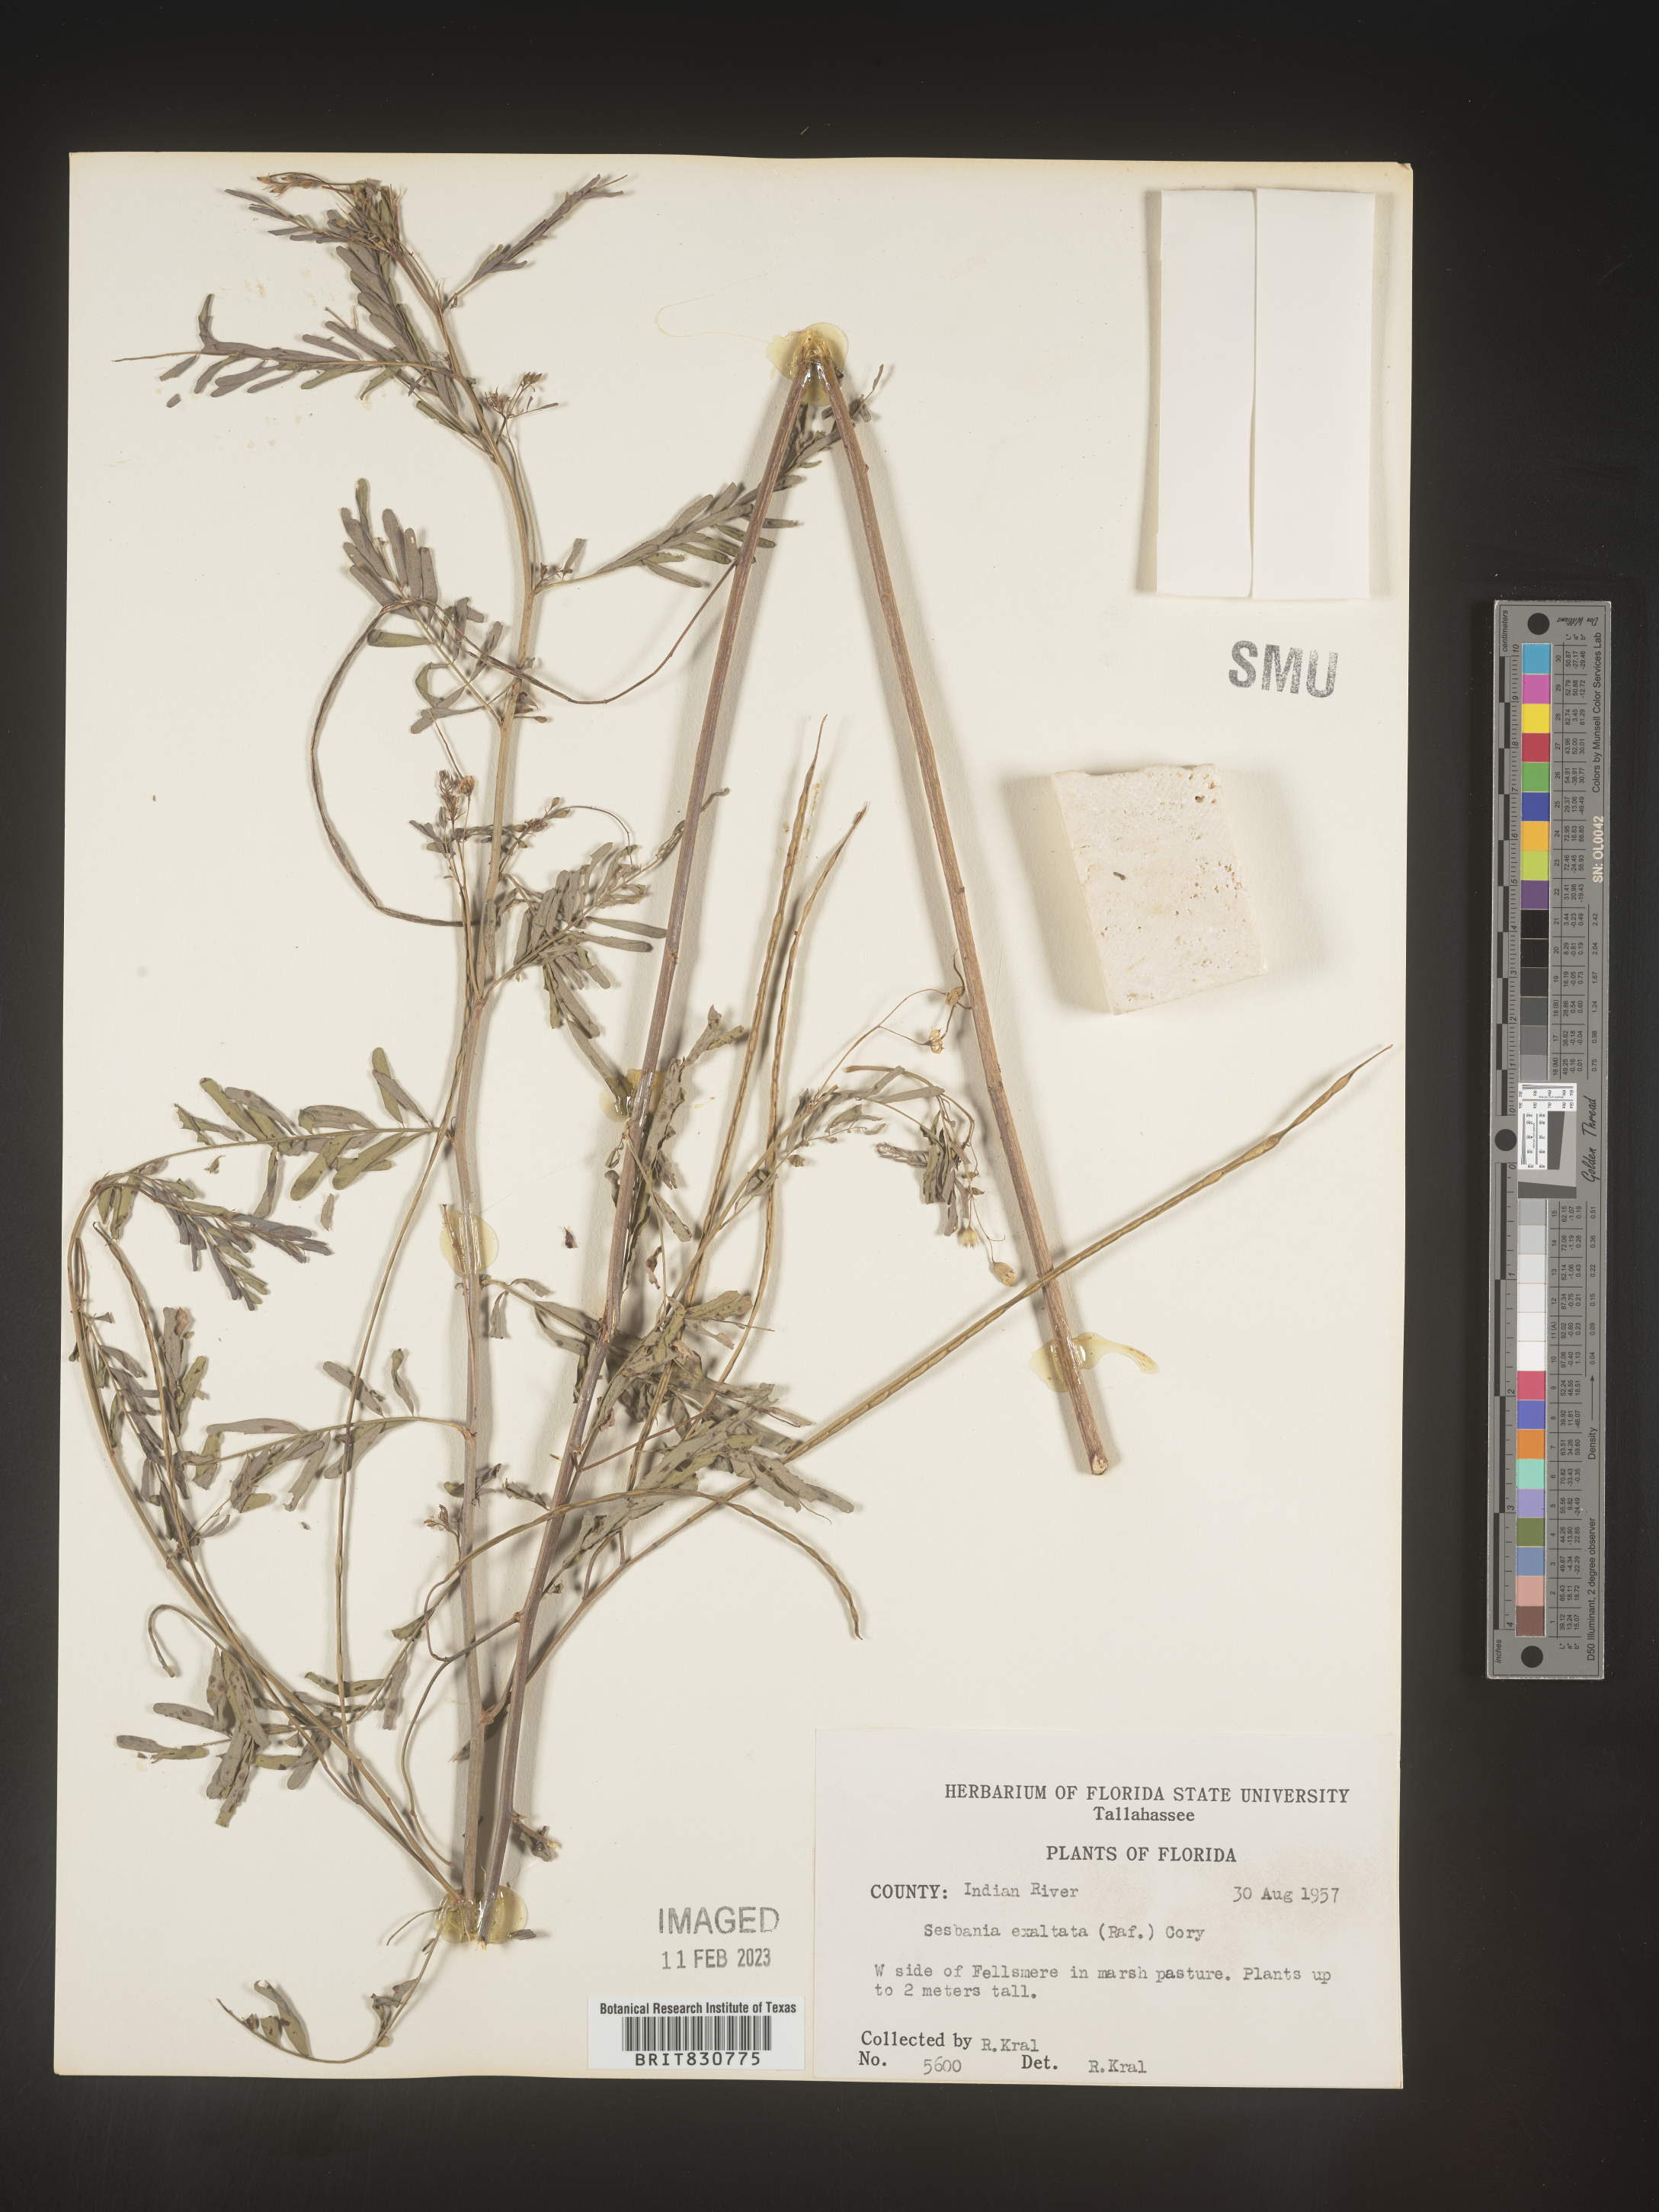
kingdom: Plantae
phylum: Tracheophyta
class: Magnoliopsida
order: Fabales
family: Fabaceae
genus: Sesbania
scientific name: Sesbania vesicaria
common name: Bagpod
